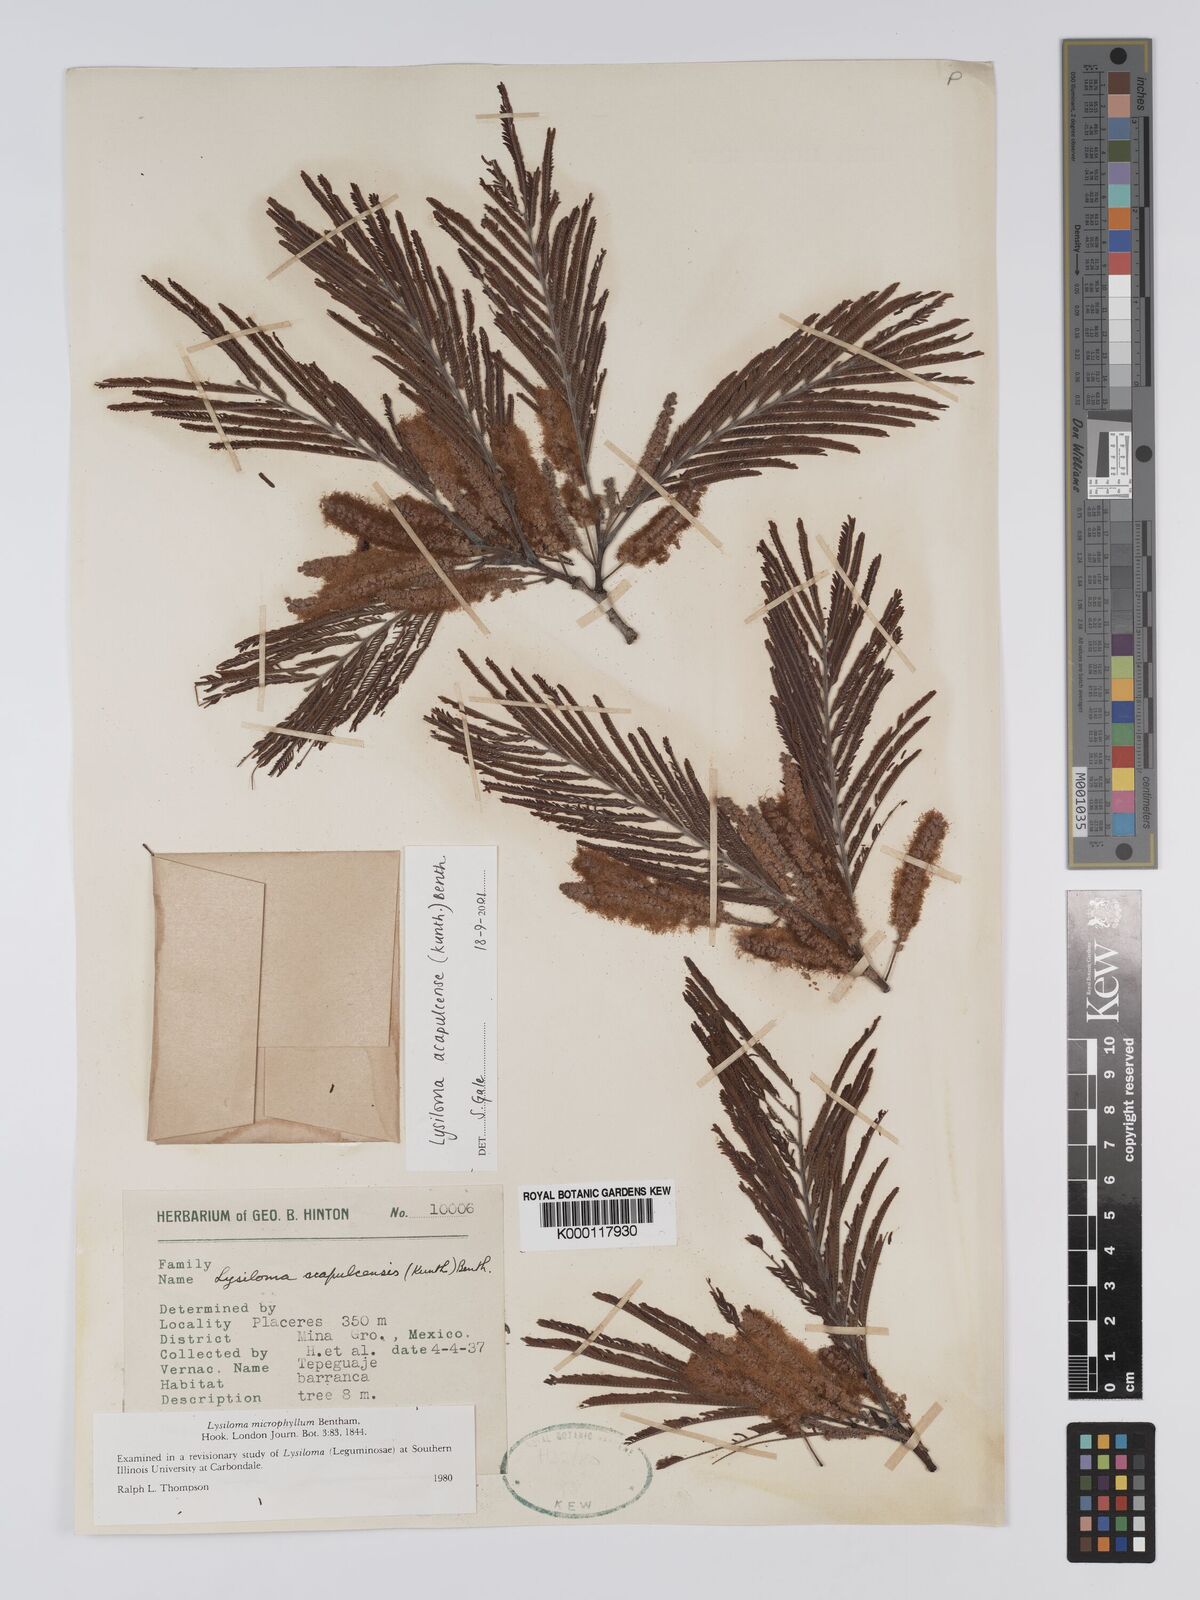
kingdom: Plantae
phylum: Tracheophyta
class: Magnoliopsida
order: Fabales
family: Fabaceae
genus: Lysiloma
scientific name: Lysiloma acapulcense
